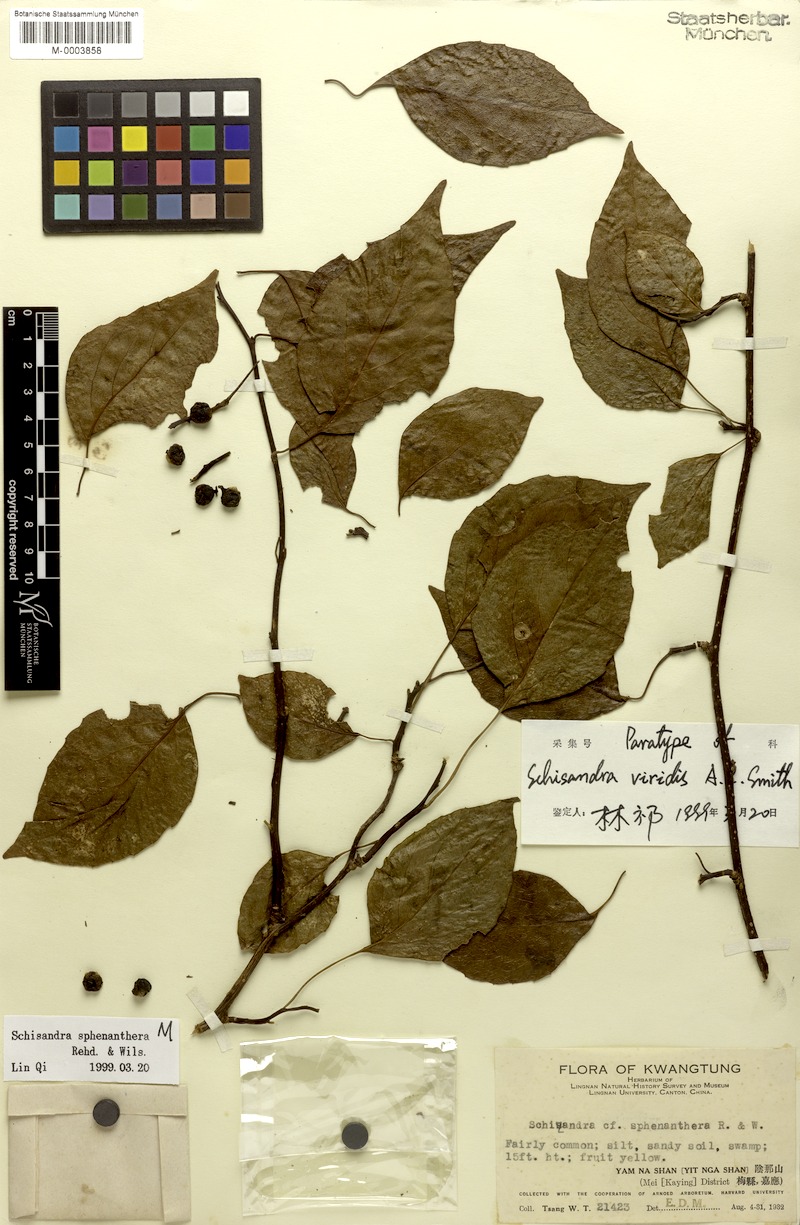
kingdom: Plantae
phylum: Tracheophyta
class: Magnoliopsida
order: Austrobaileyales
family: Schisandraceae
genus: Schisandra
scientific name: Schisandra sphenanthera
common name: Lemonwood
